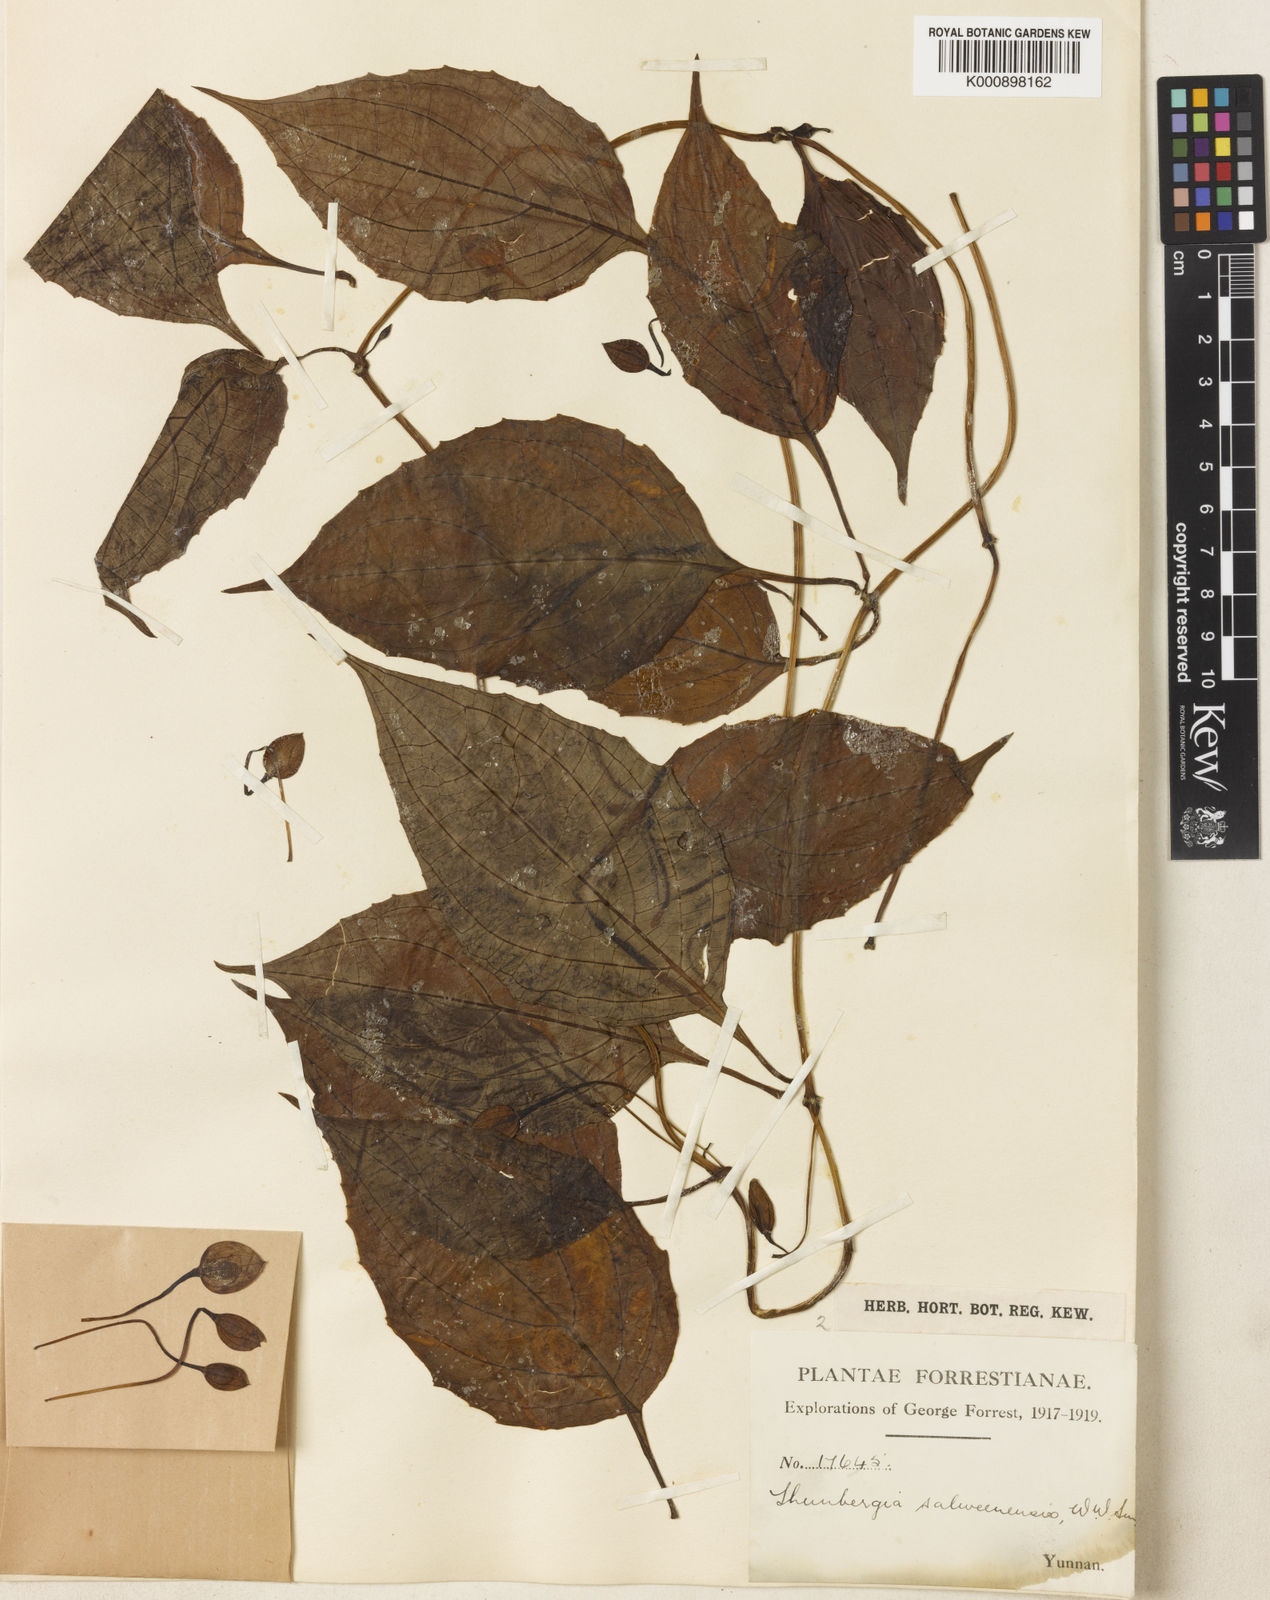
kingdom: Plantae
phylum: Tracheophyta
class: Magnoliopsida
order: Lamiales
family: Acanthaceae
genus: Thunbergia
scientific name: Thunbergia lutea
